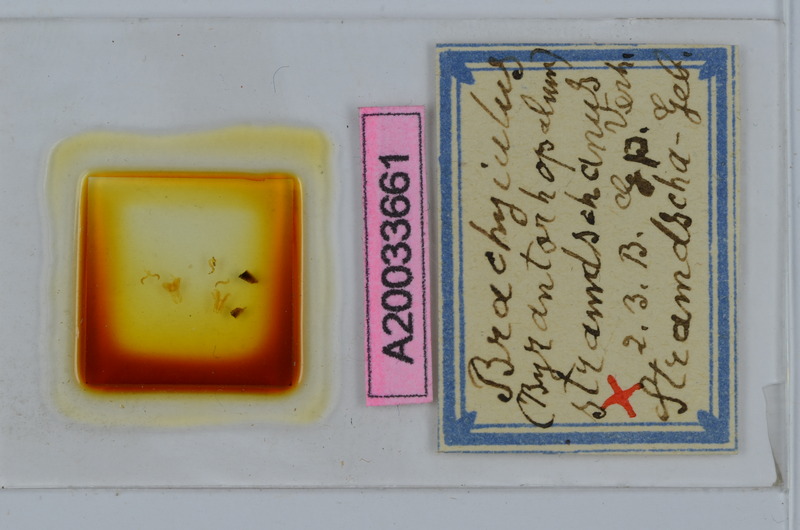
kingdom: Animalia
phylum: Arthropoda
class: Diplopoda
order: Julida
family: Julidae
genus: Byzantorhopalum
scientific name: Byzantorhopalum rossicum
